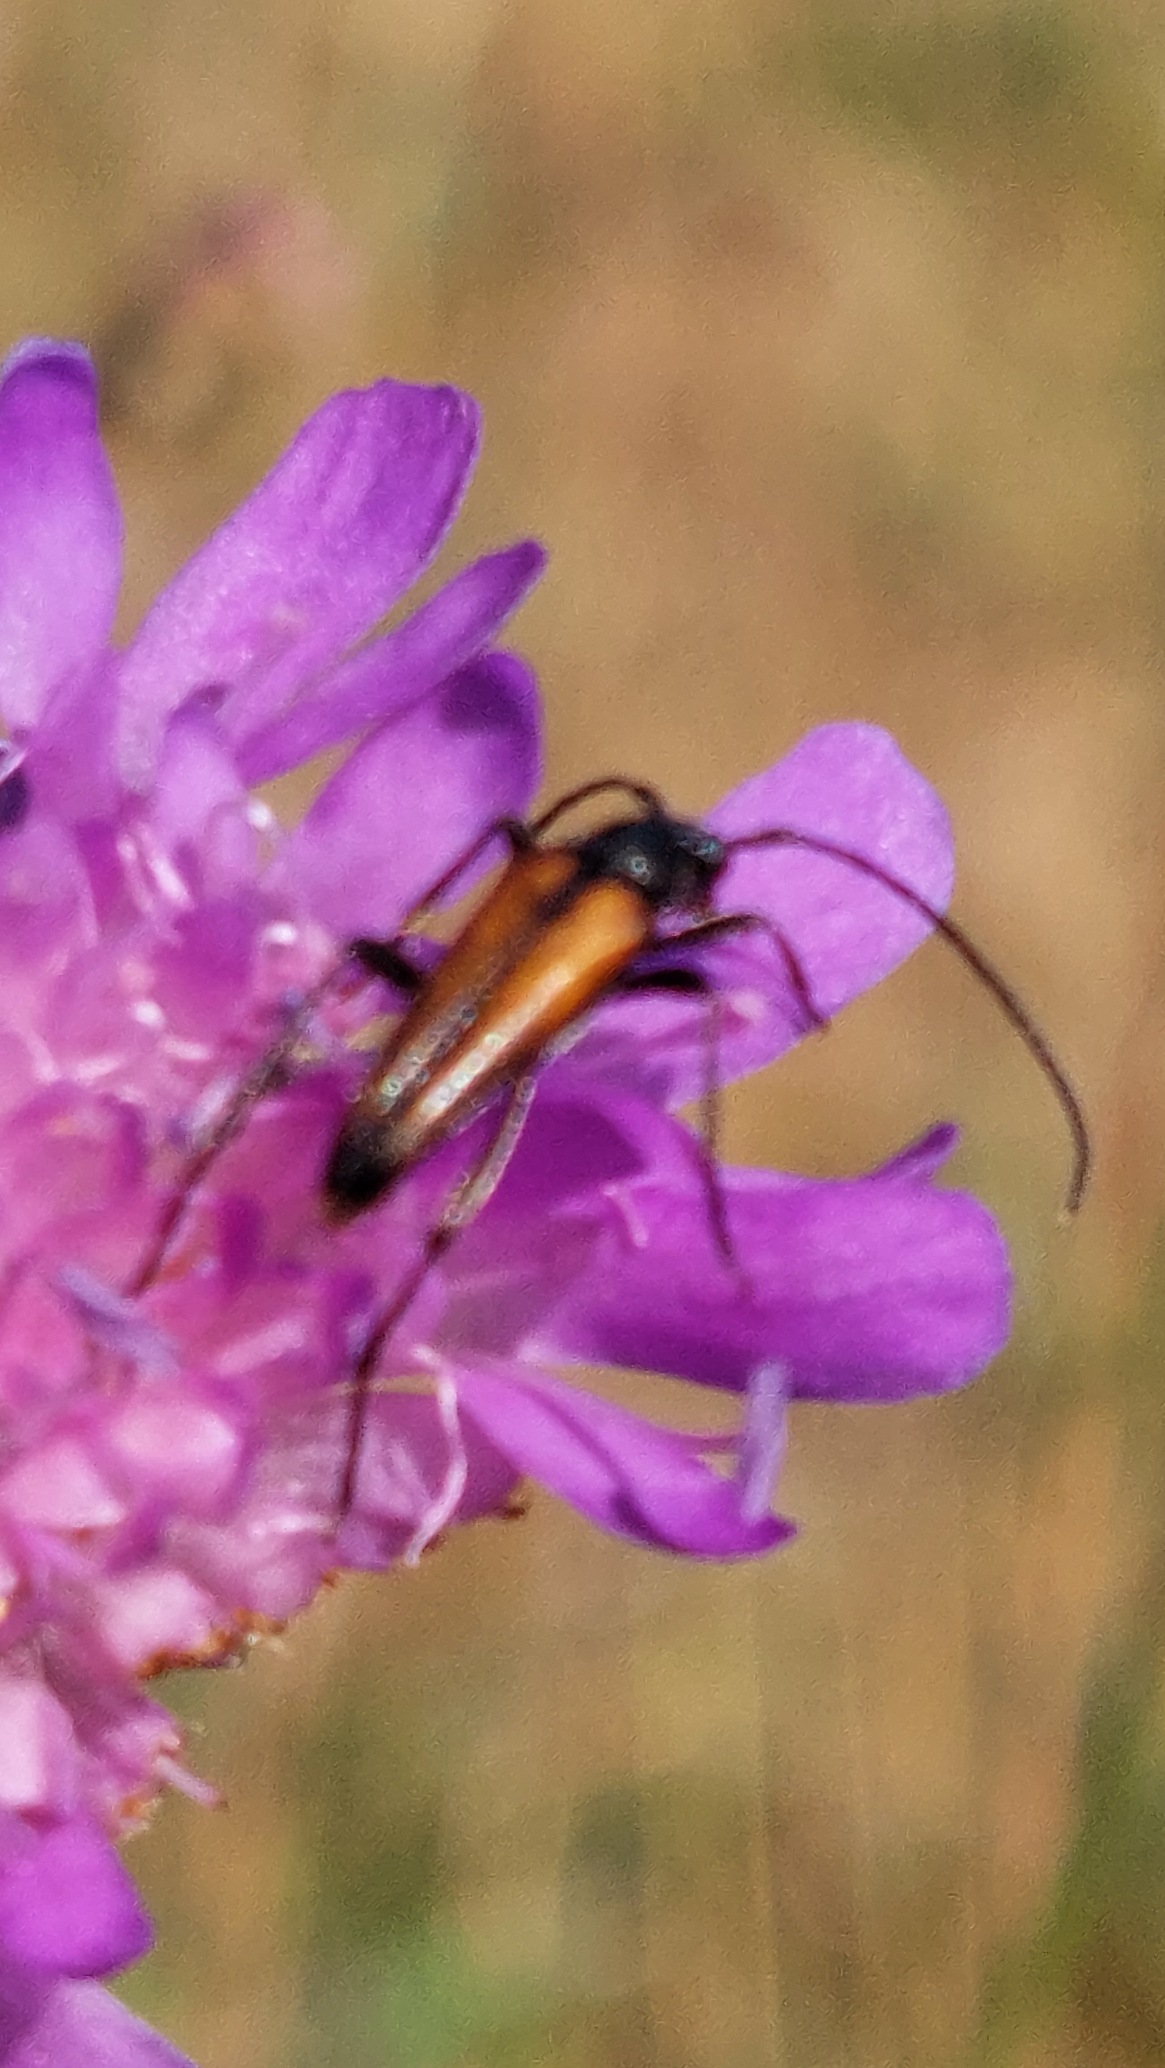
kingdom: Animalia
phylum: Arthropoda
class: Insecta
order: Coleoptera
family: Cerambycidae
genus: Stenurella
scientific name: Stenurella melanura
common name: Sortsømmet blomsterbuk
